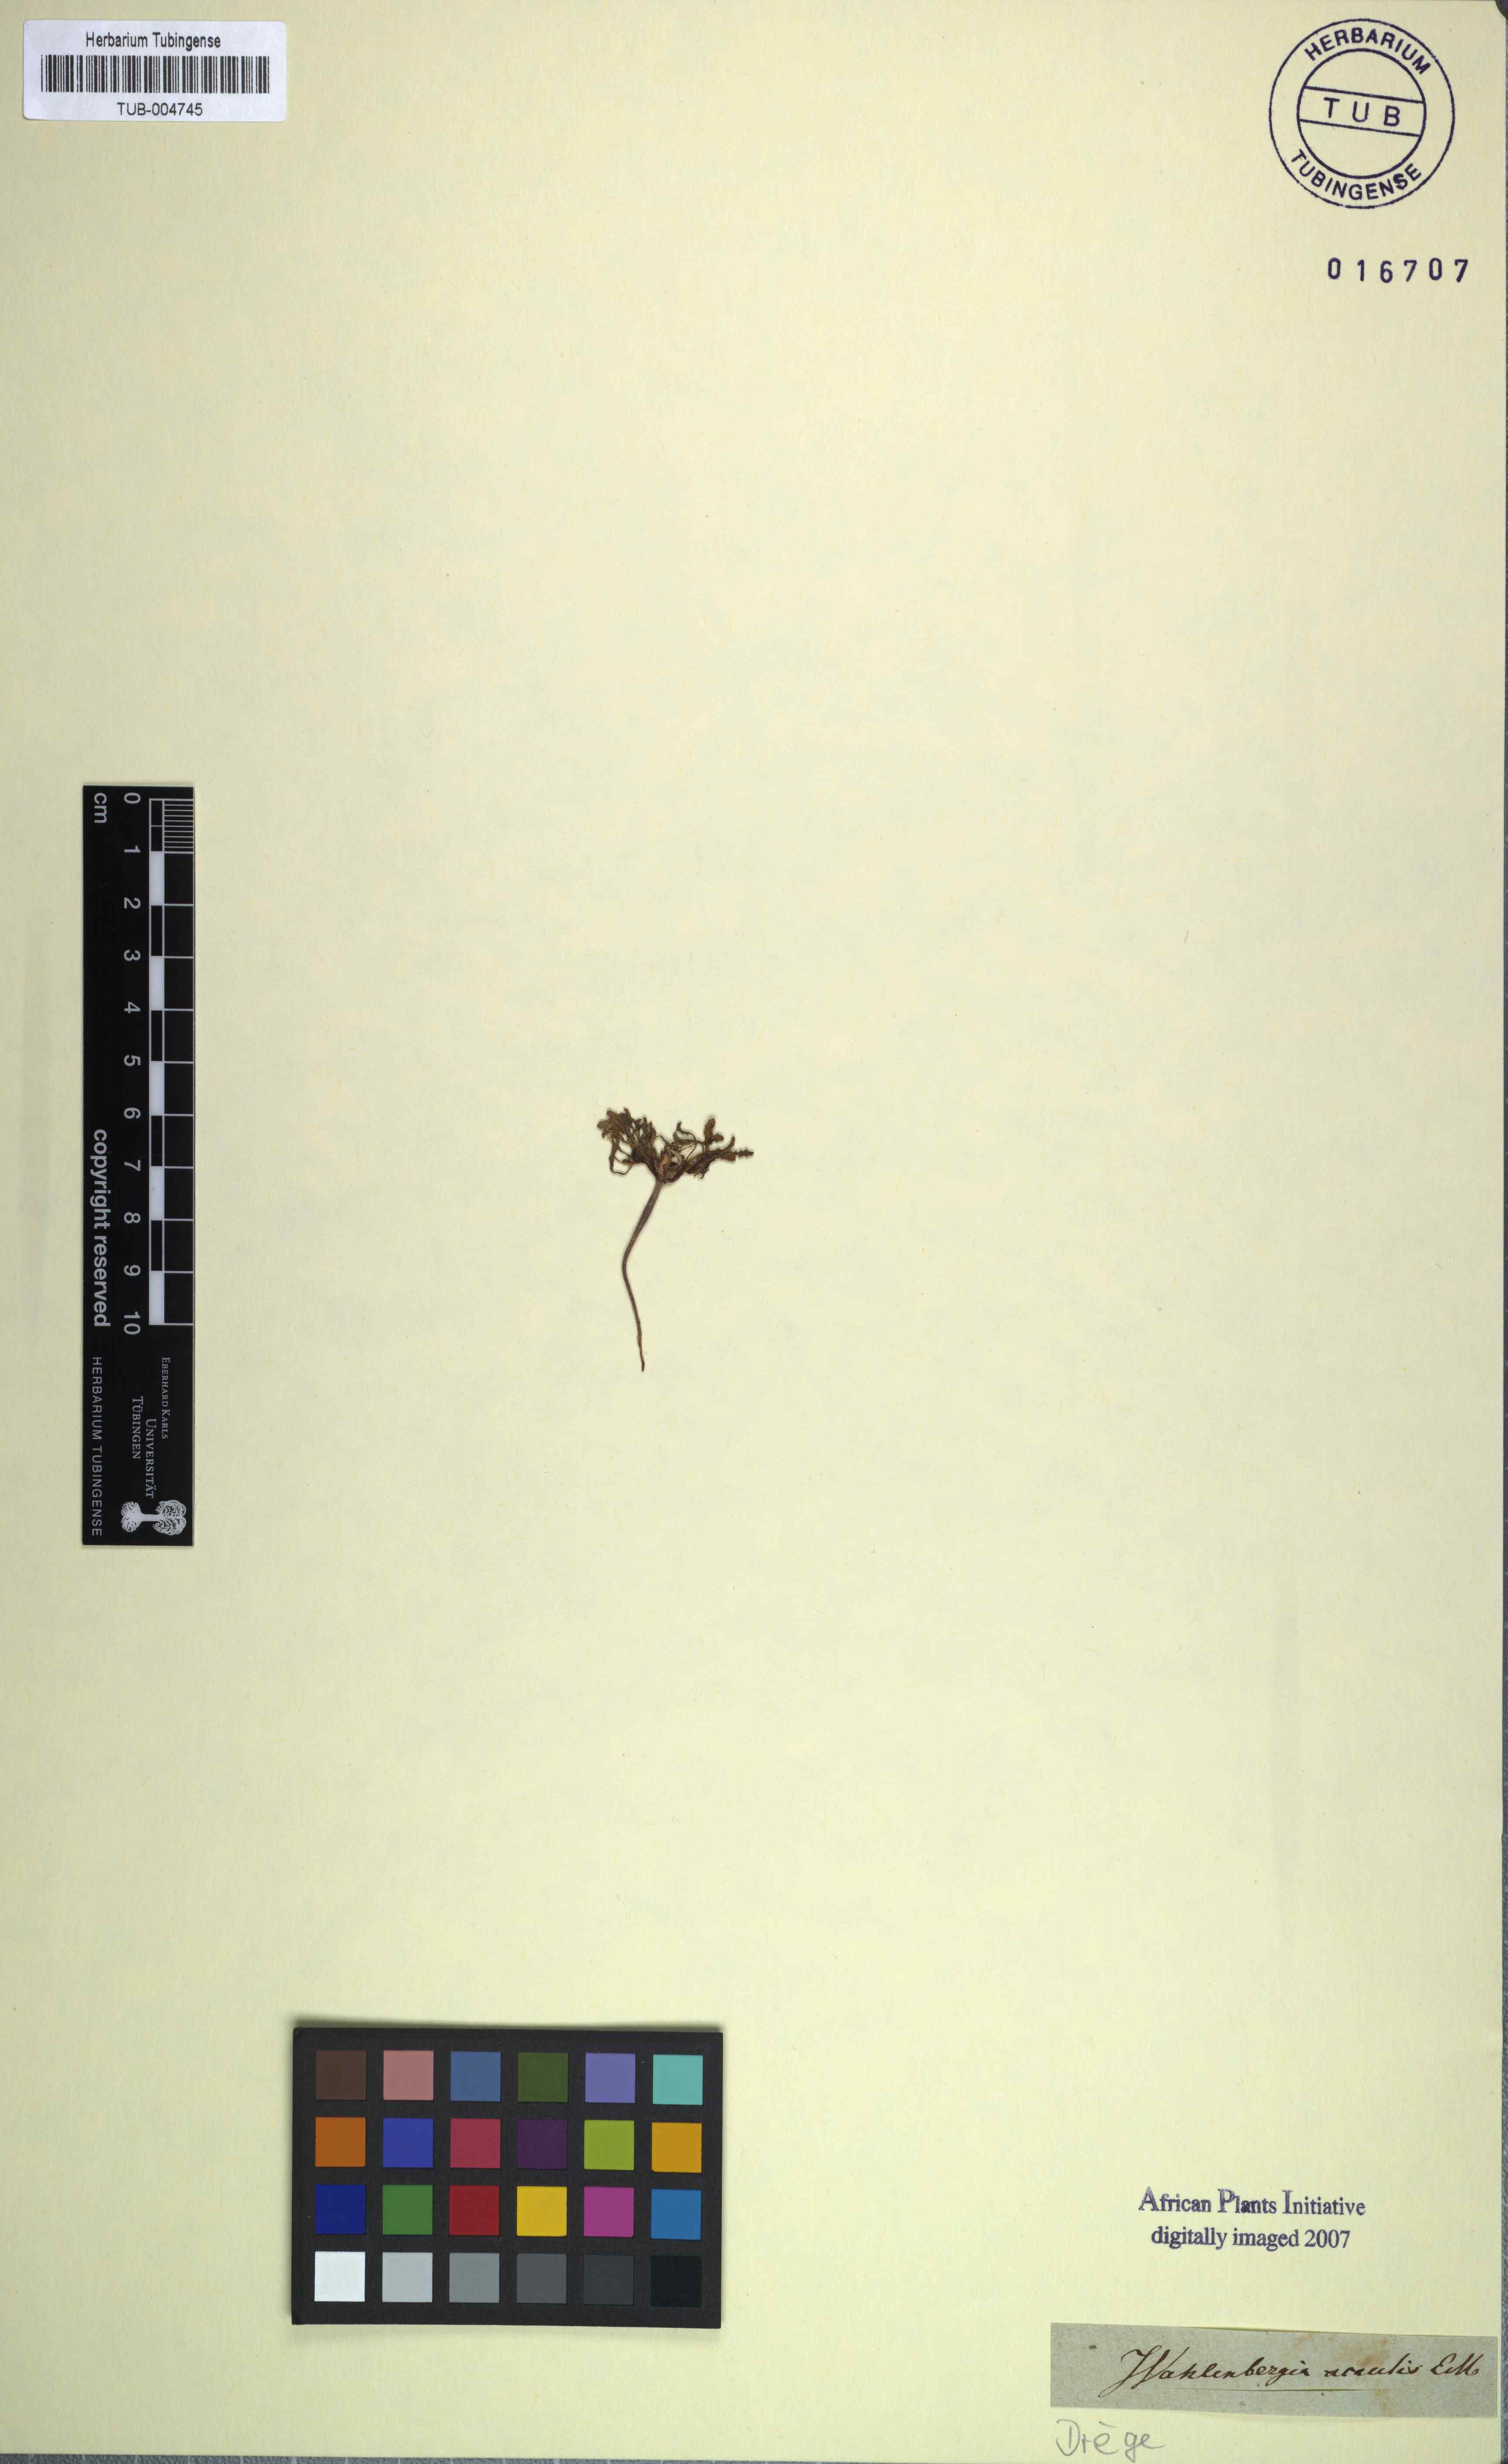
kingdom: Plantae
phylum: Tracheophyta
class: Magnoliopsida
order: Asterales
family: Campanulaceae
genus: Wahlenbergia
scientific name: Wahlenbergia acaulis
